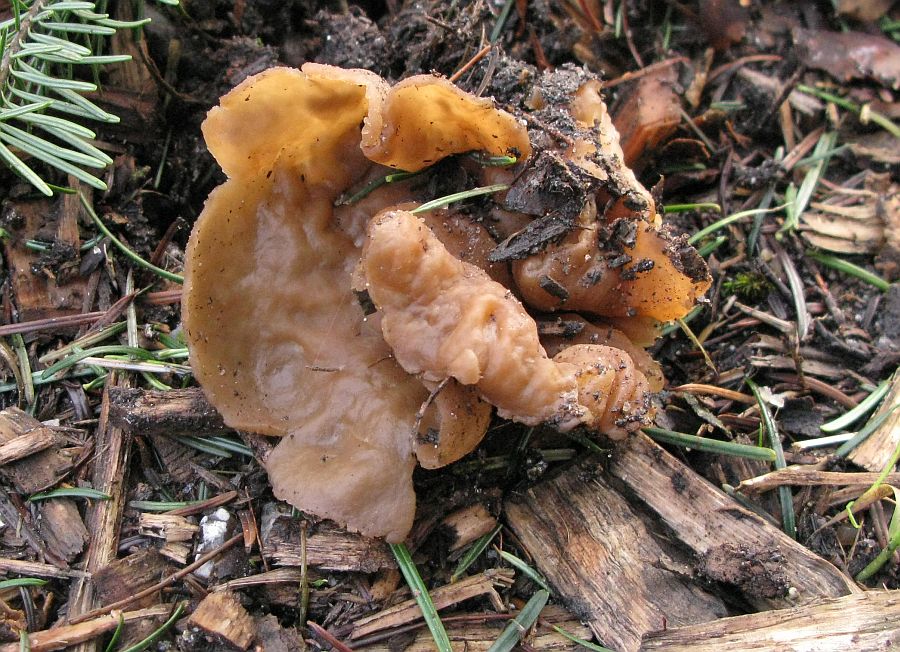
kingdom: Fungi
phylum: Ascomycota
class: Pezizomycetes
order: Pezizales
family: Pezizaceae
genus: Peziza
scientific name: Peziza varia
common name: Ved-bægersvamp
